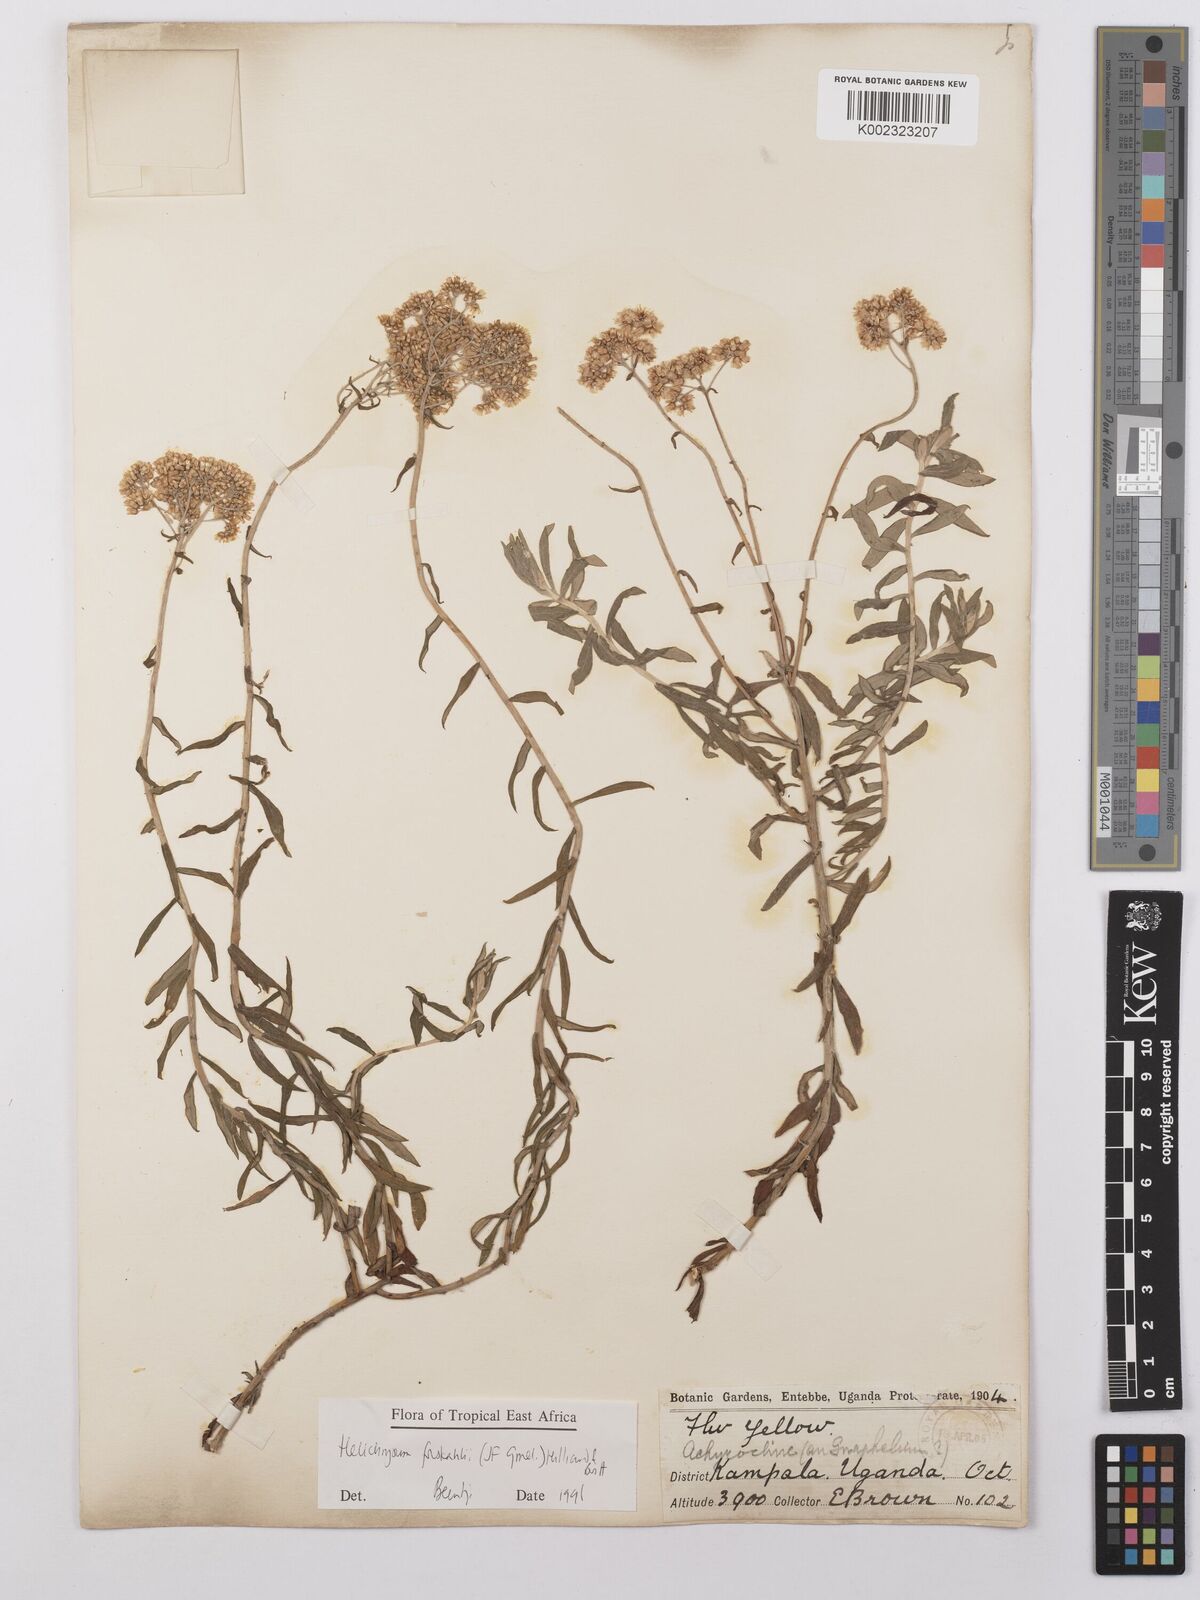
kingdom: Plantae
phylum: Tracheophyta
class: Magnoliopsida
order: Asterales
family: Asteraceae
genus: Helichrysum
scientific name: Helichrysum forskahlii
